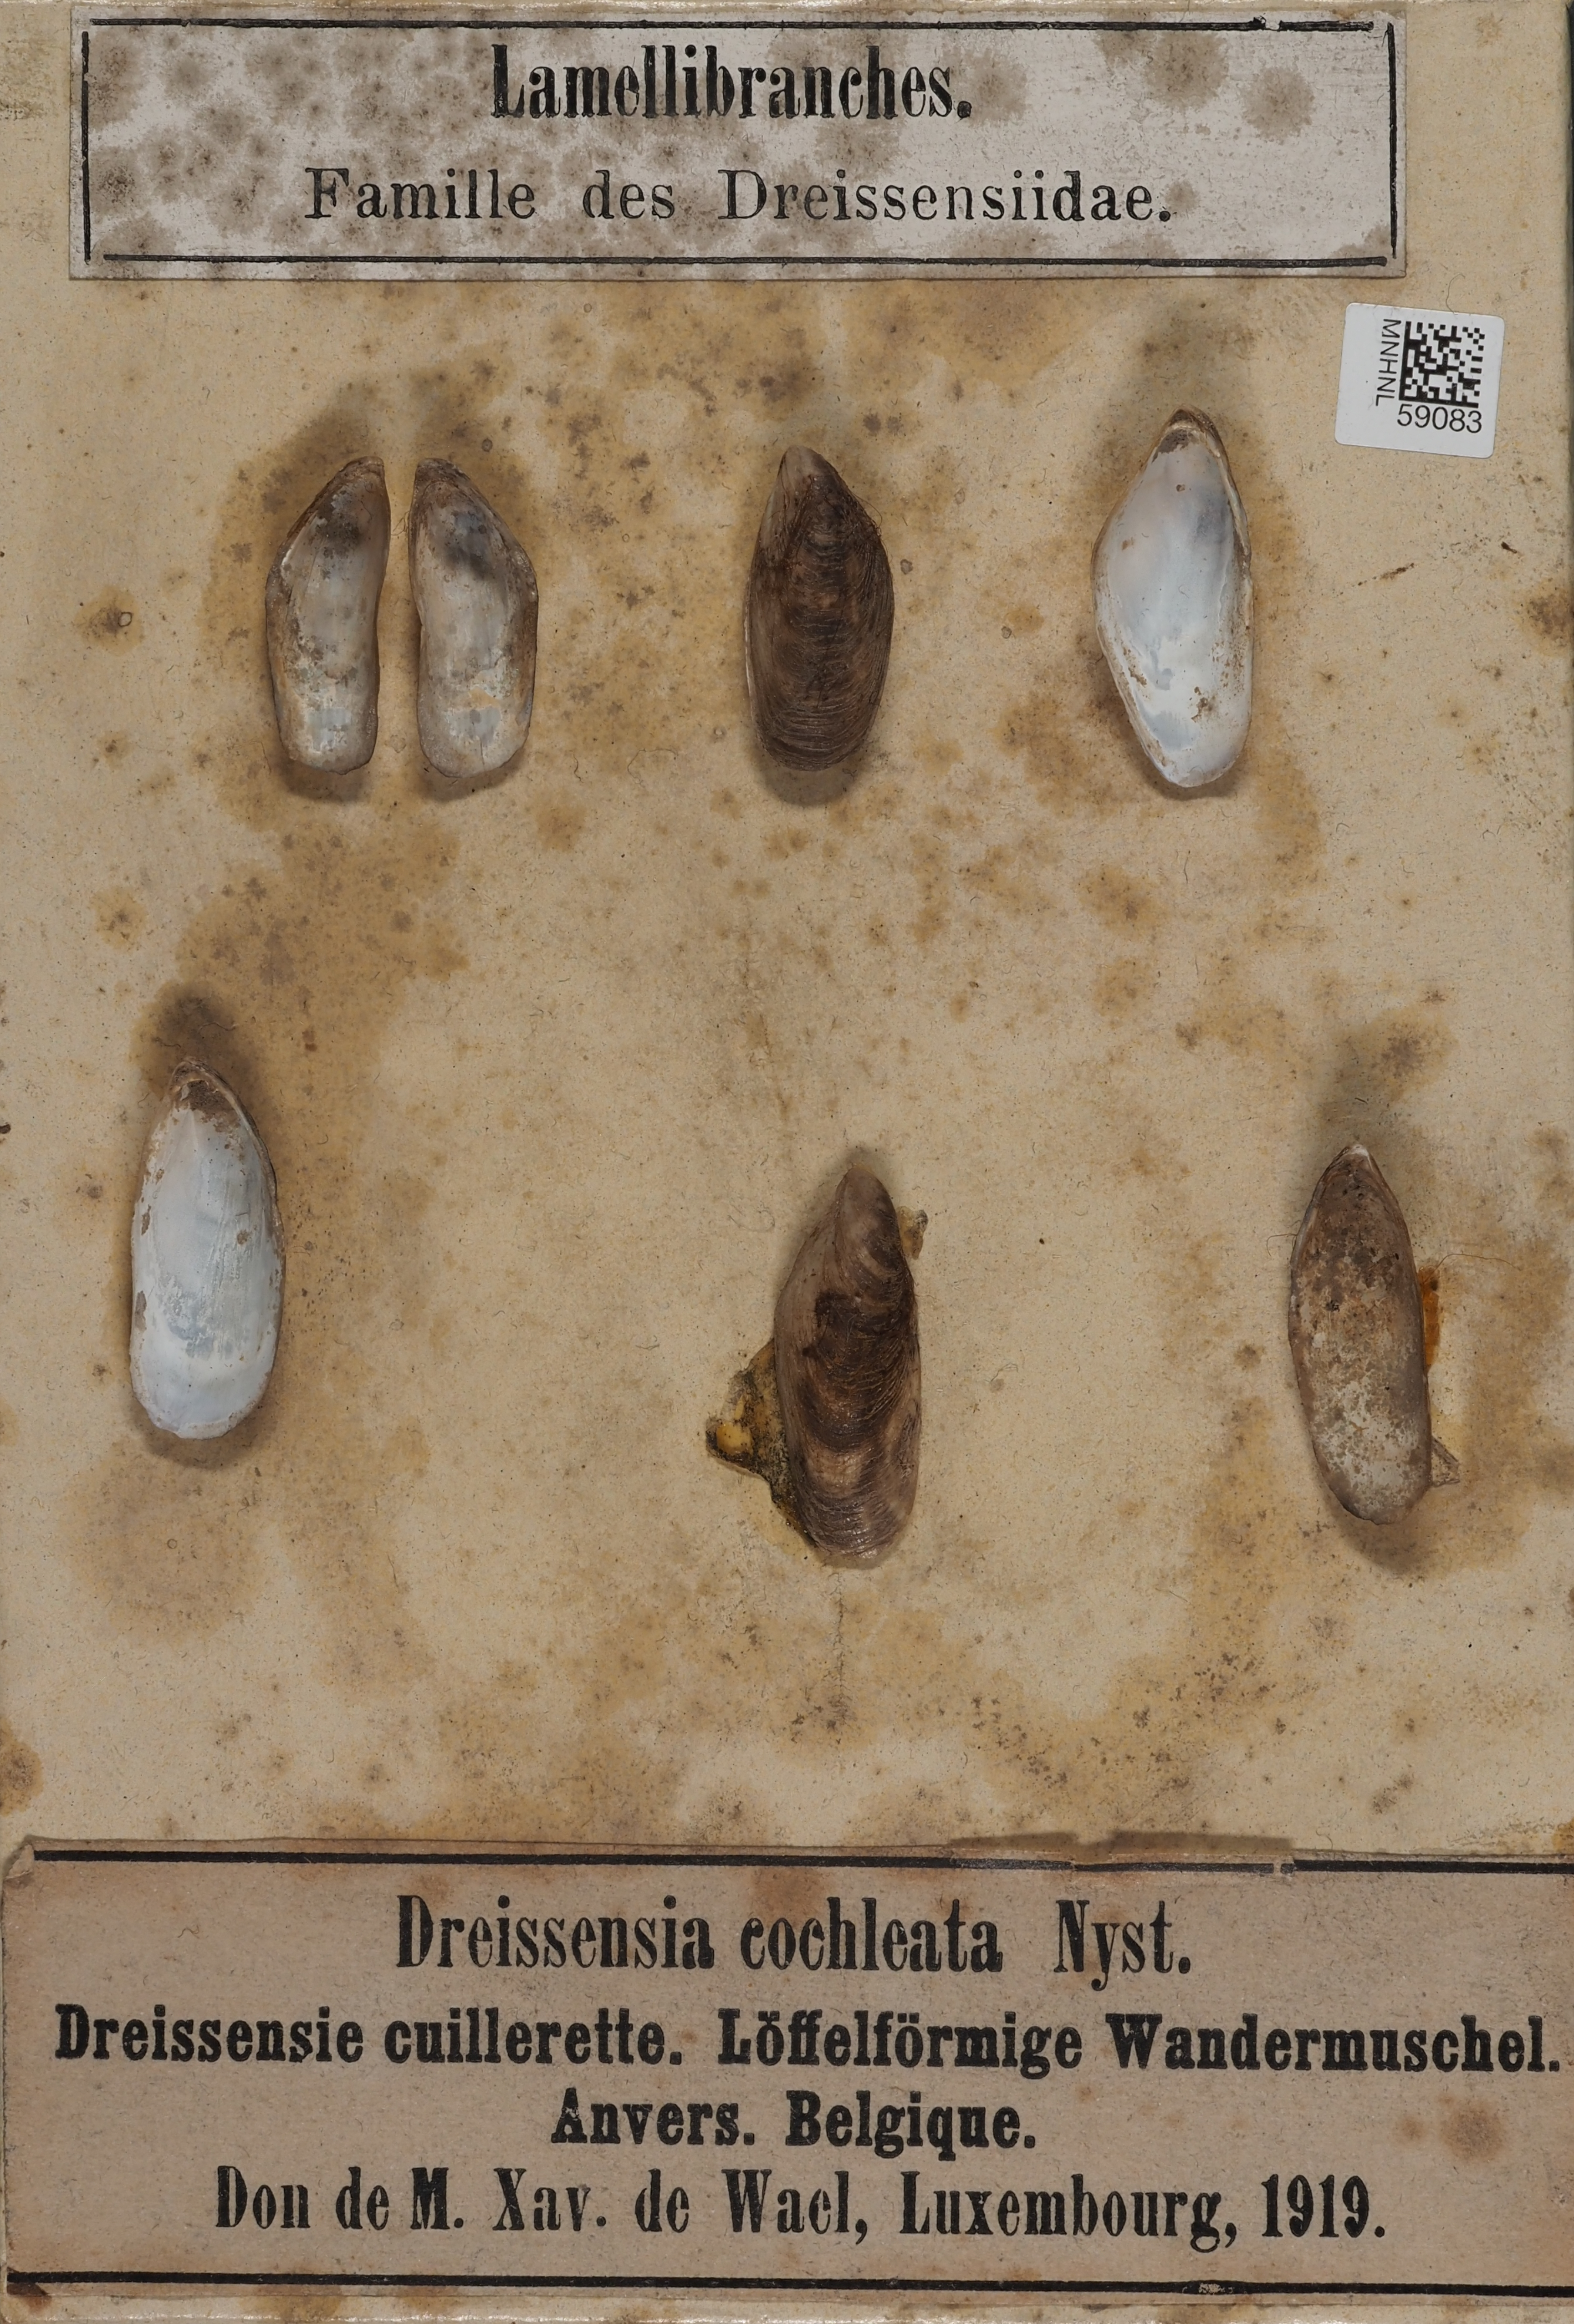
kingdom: Animalia
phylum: Mollusca
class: Bivalvia
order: Myida
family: Dreissenidae
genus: Dreissena
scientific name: Dreissena
